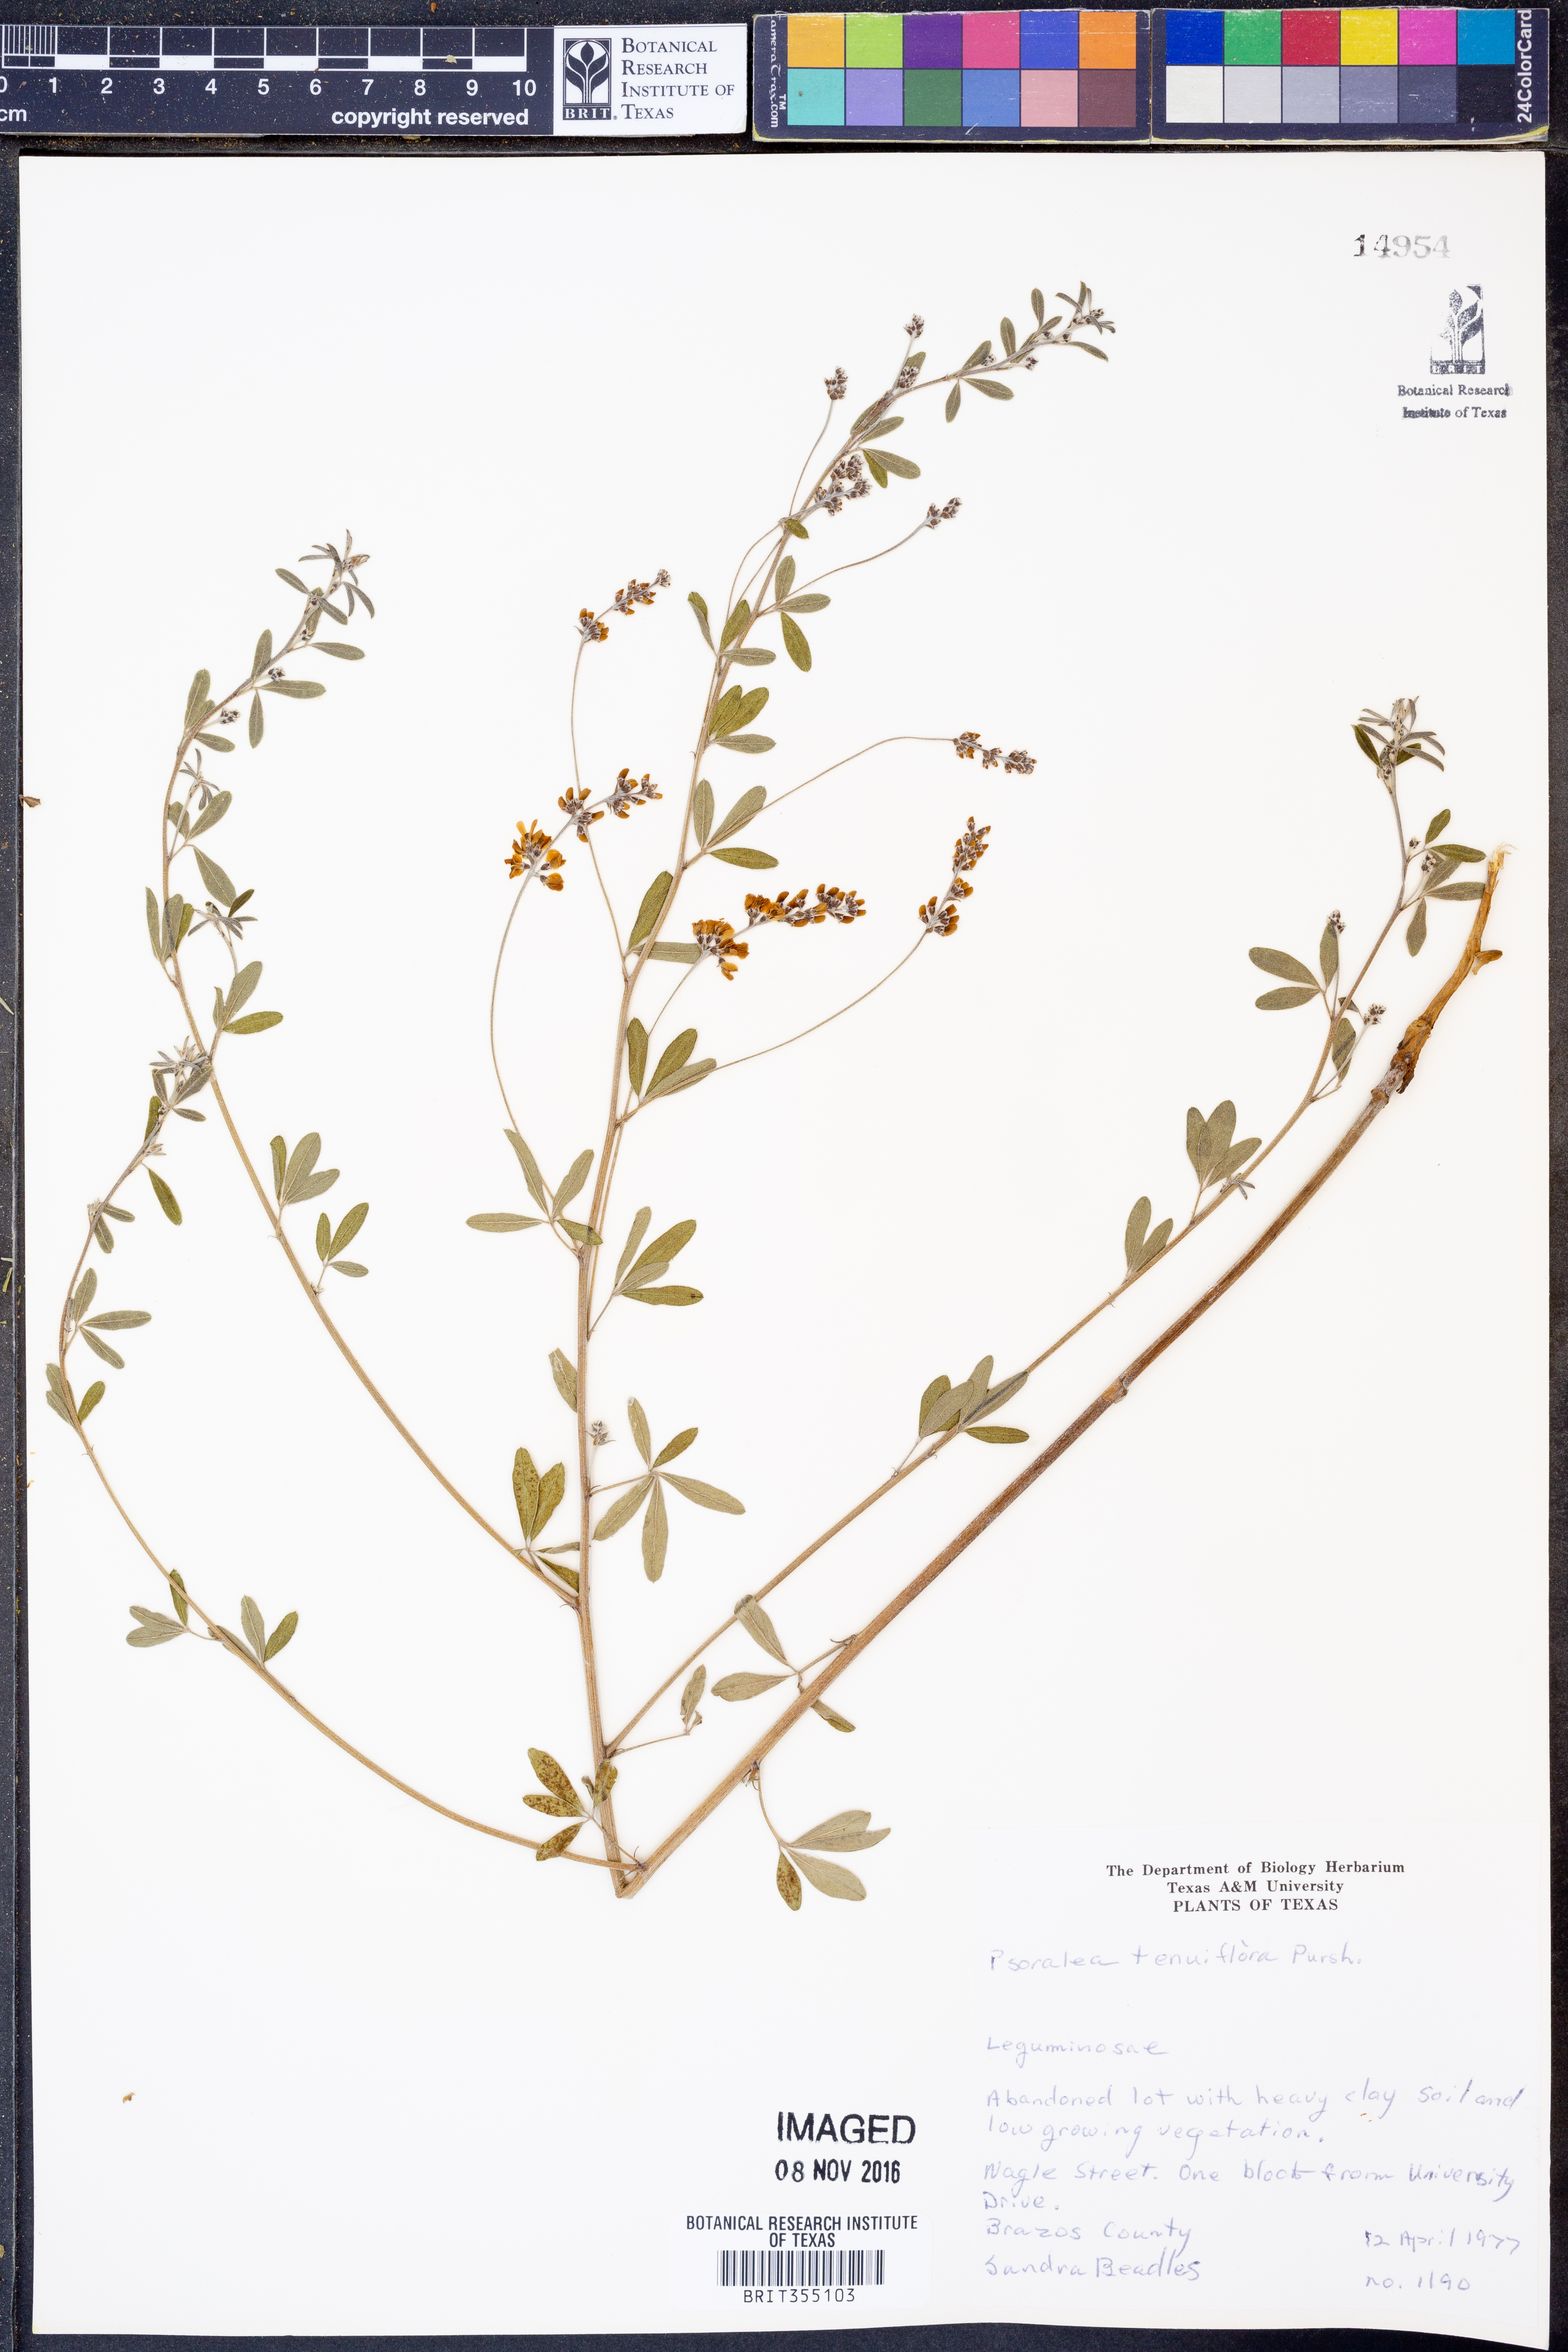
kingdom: Plantae
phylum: Tracheophyta
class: Magnoliopsida
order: Fabales
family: Fabaceae
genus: Pediomelum
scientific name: Pediomelum tenuiflorum
